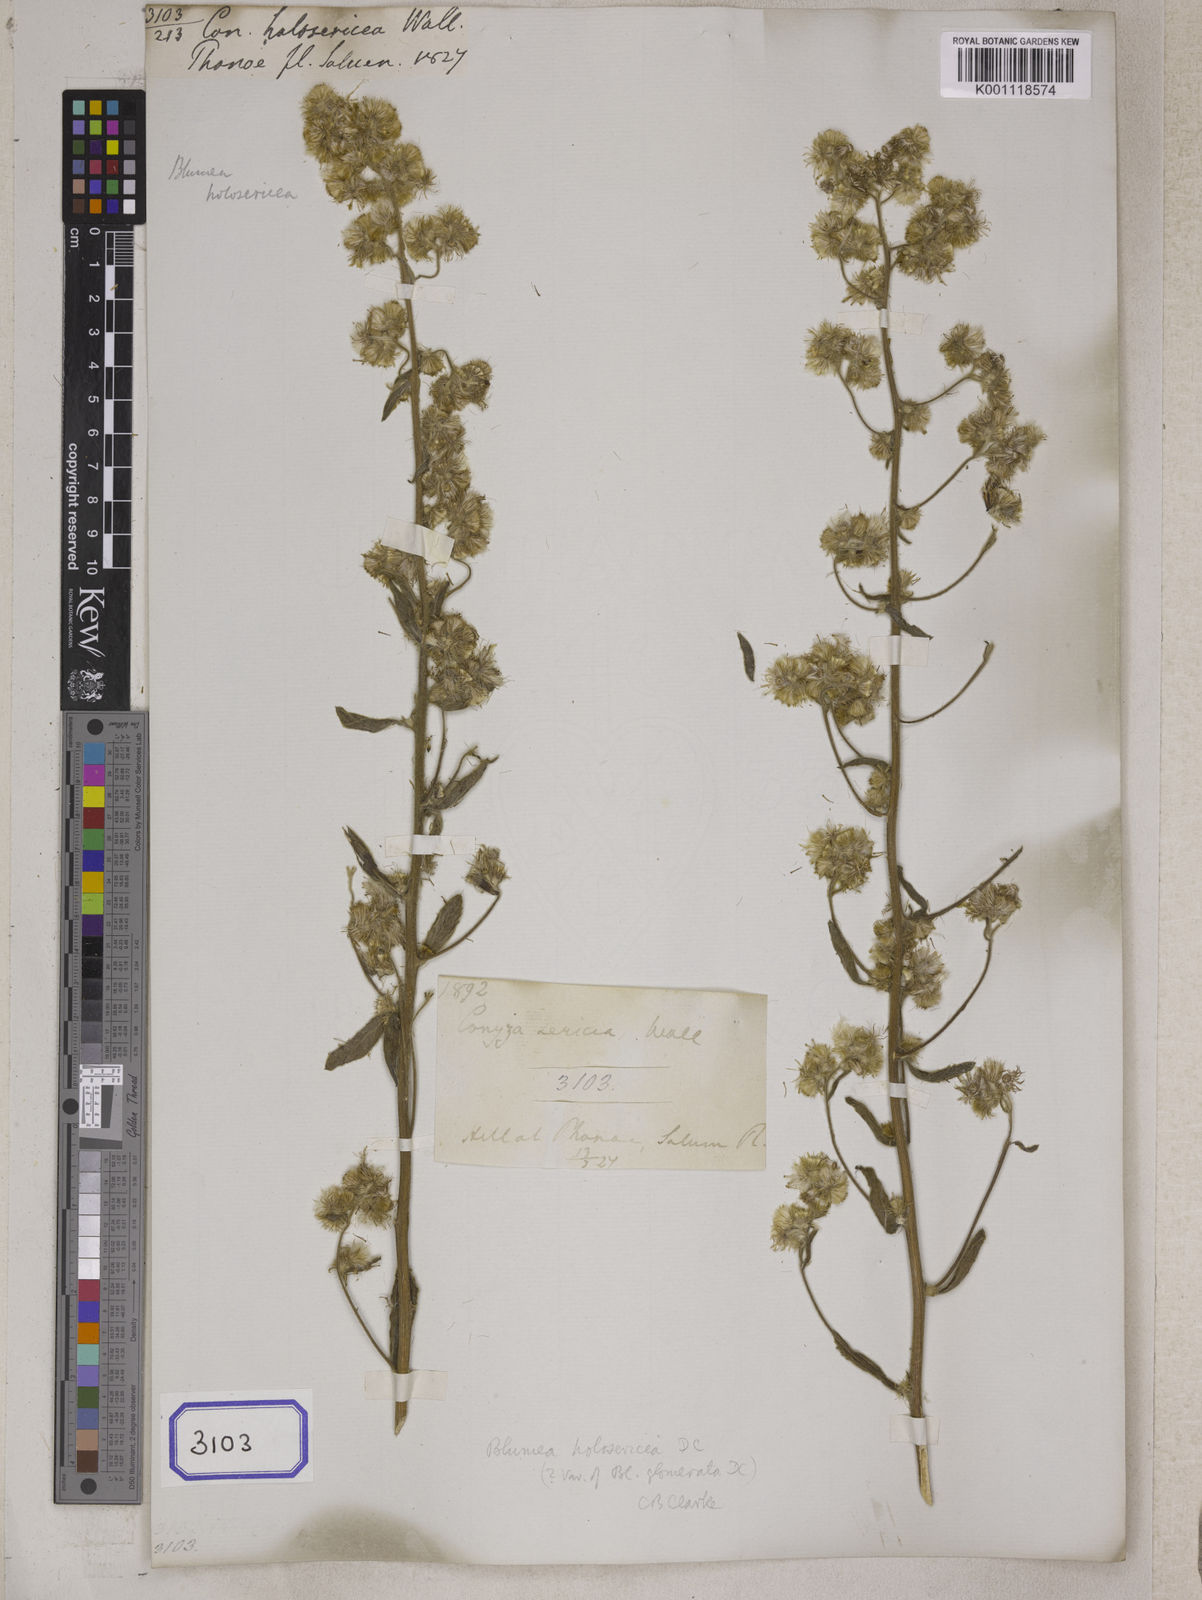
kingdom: Plantae
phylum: Tracheophyta
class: Magnoliopsida
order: Asterales
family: Asteraceae
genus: Blumea
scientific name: Blumea lacera
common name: Malay blumea
